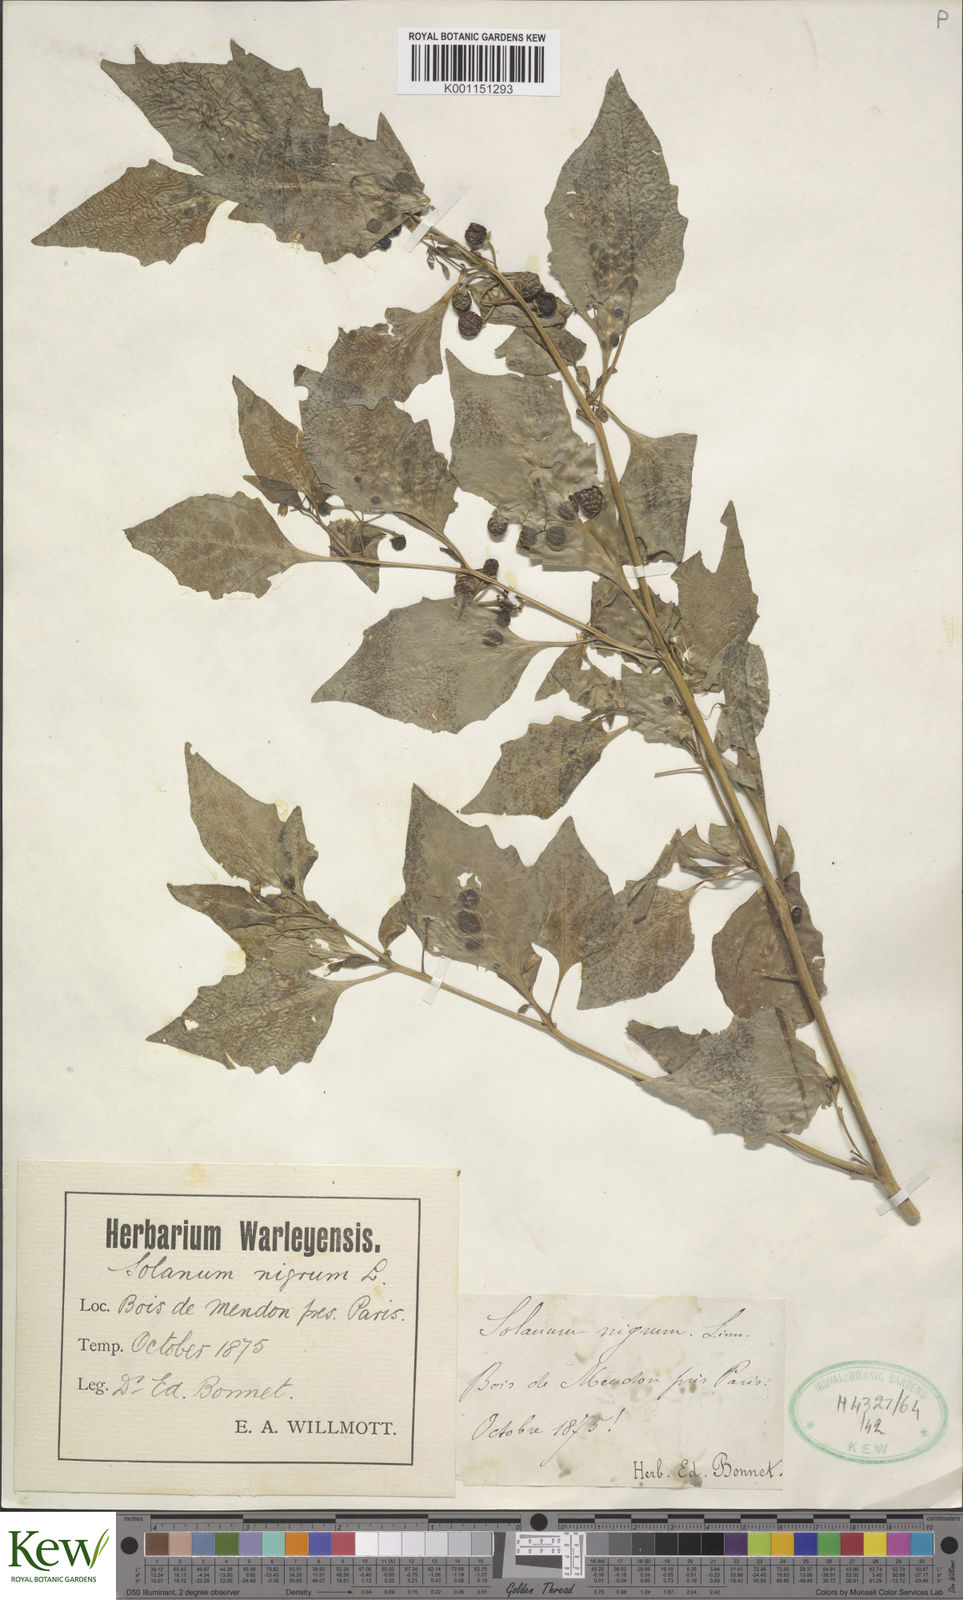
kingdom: Plantae
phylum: Tracheophyta
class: Magnoliopsida
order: Solanales
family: Solanaceae
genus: Solanum
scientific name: Solanum nigrum
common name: Black nightshade
